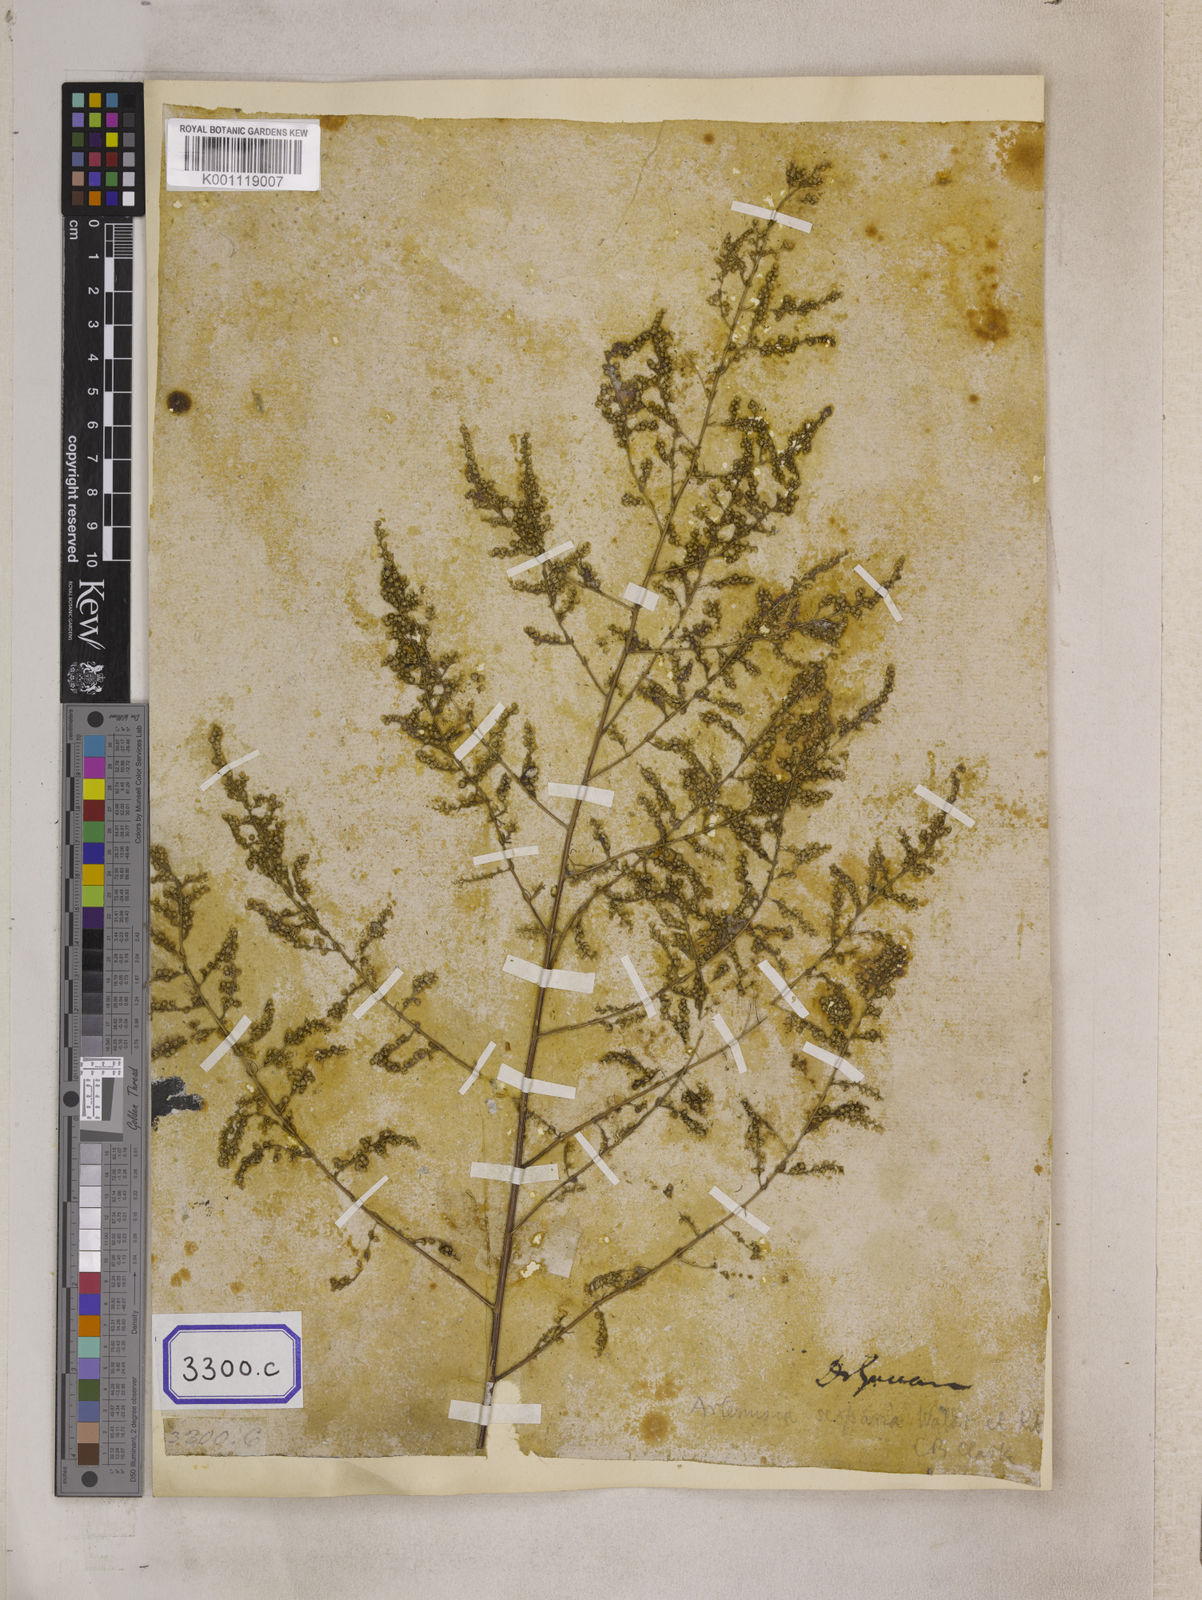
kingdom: Plantae
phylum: Tracheophyta
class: Magnoliopsida
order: Asterales
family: Asteraceae
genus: Artemisia
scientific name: Artemisia scoparia
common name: Redstem wormwood
